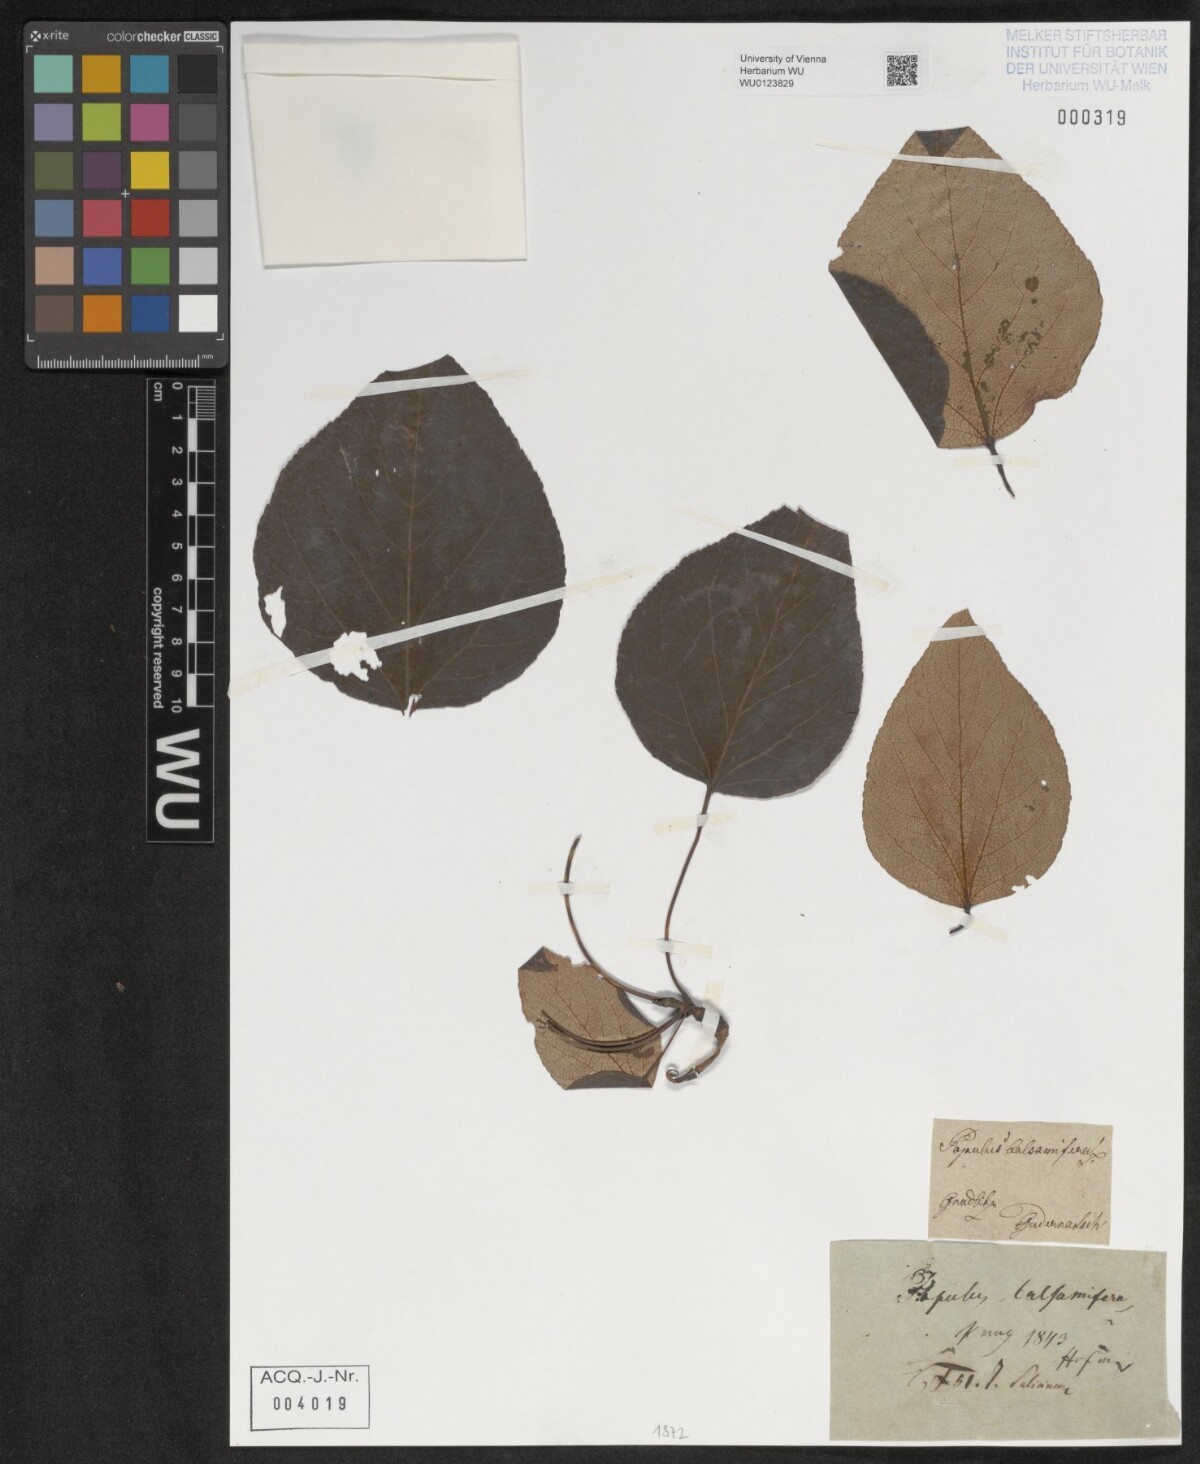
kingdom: Plantae
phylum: Tracheophyta
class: Magnoliopsida
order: Malpighiales
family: Salicaceae
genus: Populus
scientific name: Populus balsamifera
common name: Balsam poplar
